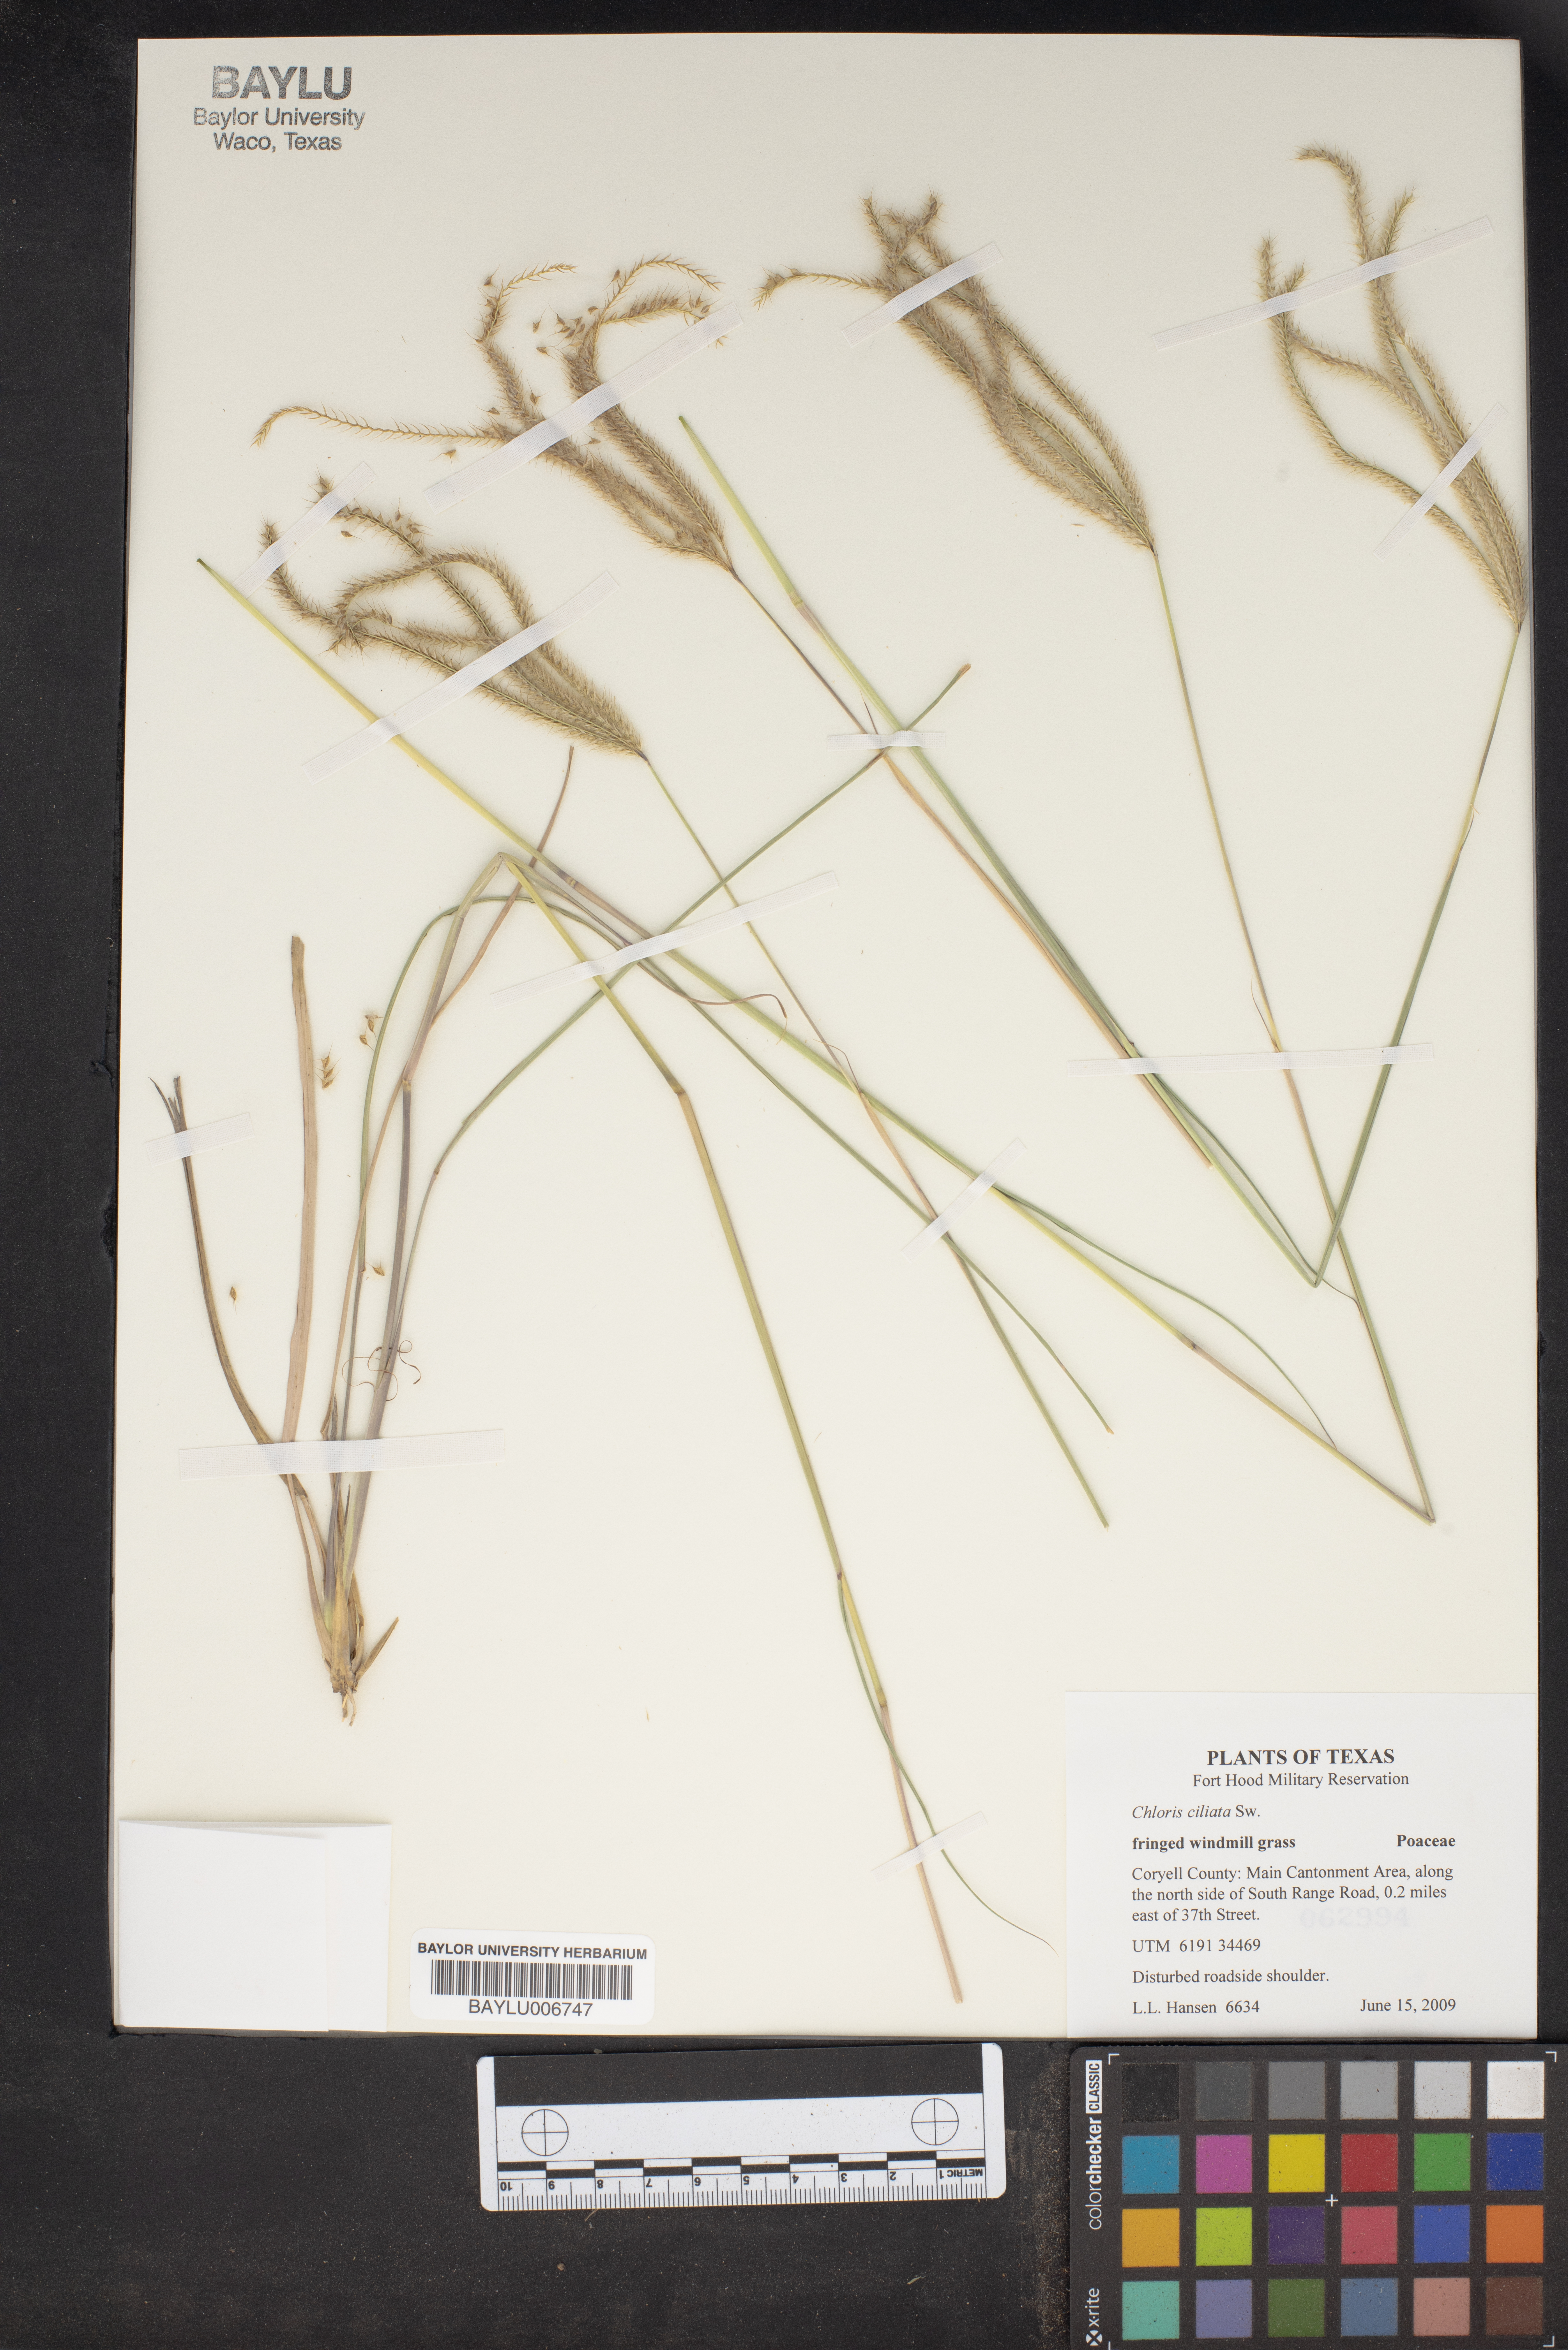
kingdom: Plantae
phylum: Tracheophyta
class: Liliopsida
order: Poales
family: Poaceae
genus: Stapfochloa
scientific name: Stapfochloa ciliata
